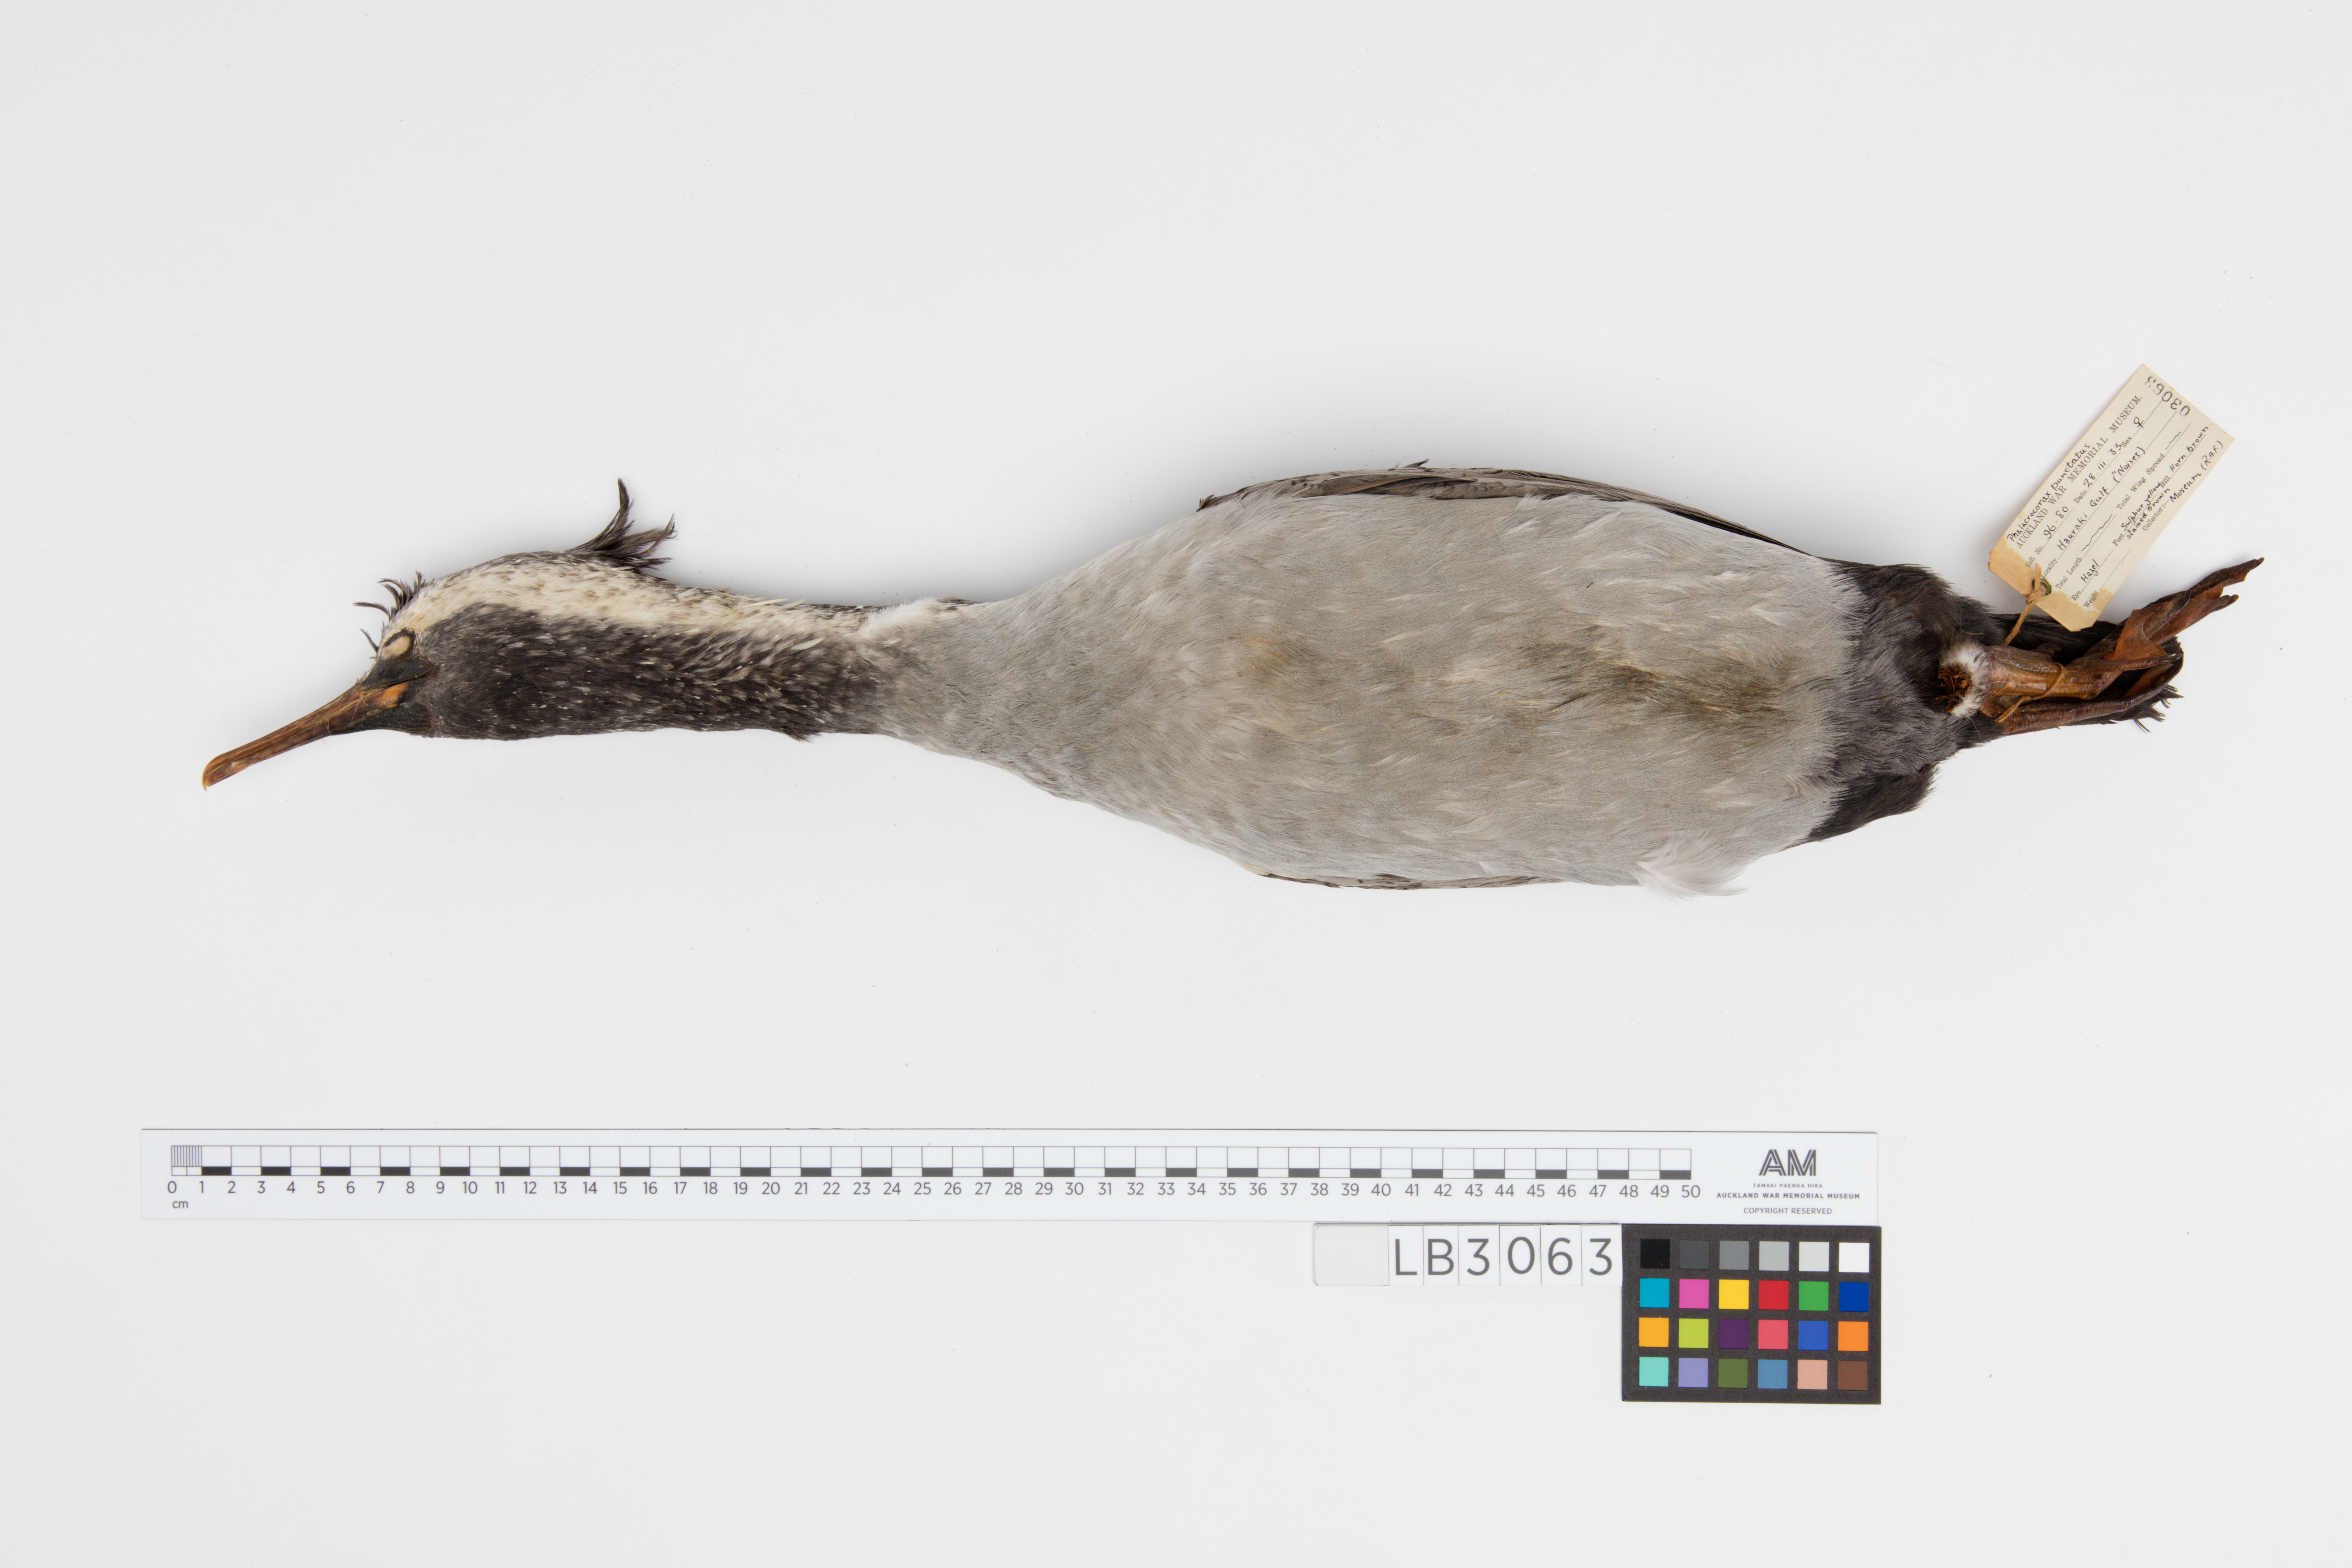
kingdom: Animalia
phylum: Chordata
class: Aves
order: Suliformes
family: Phalacrocoracidae
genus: Phalacrocorax
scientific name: Phalacrocorax punctatus
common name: Spotted shag
